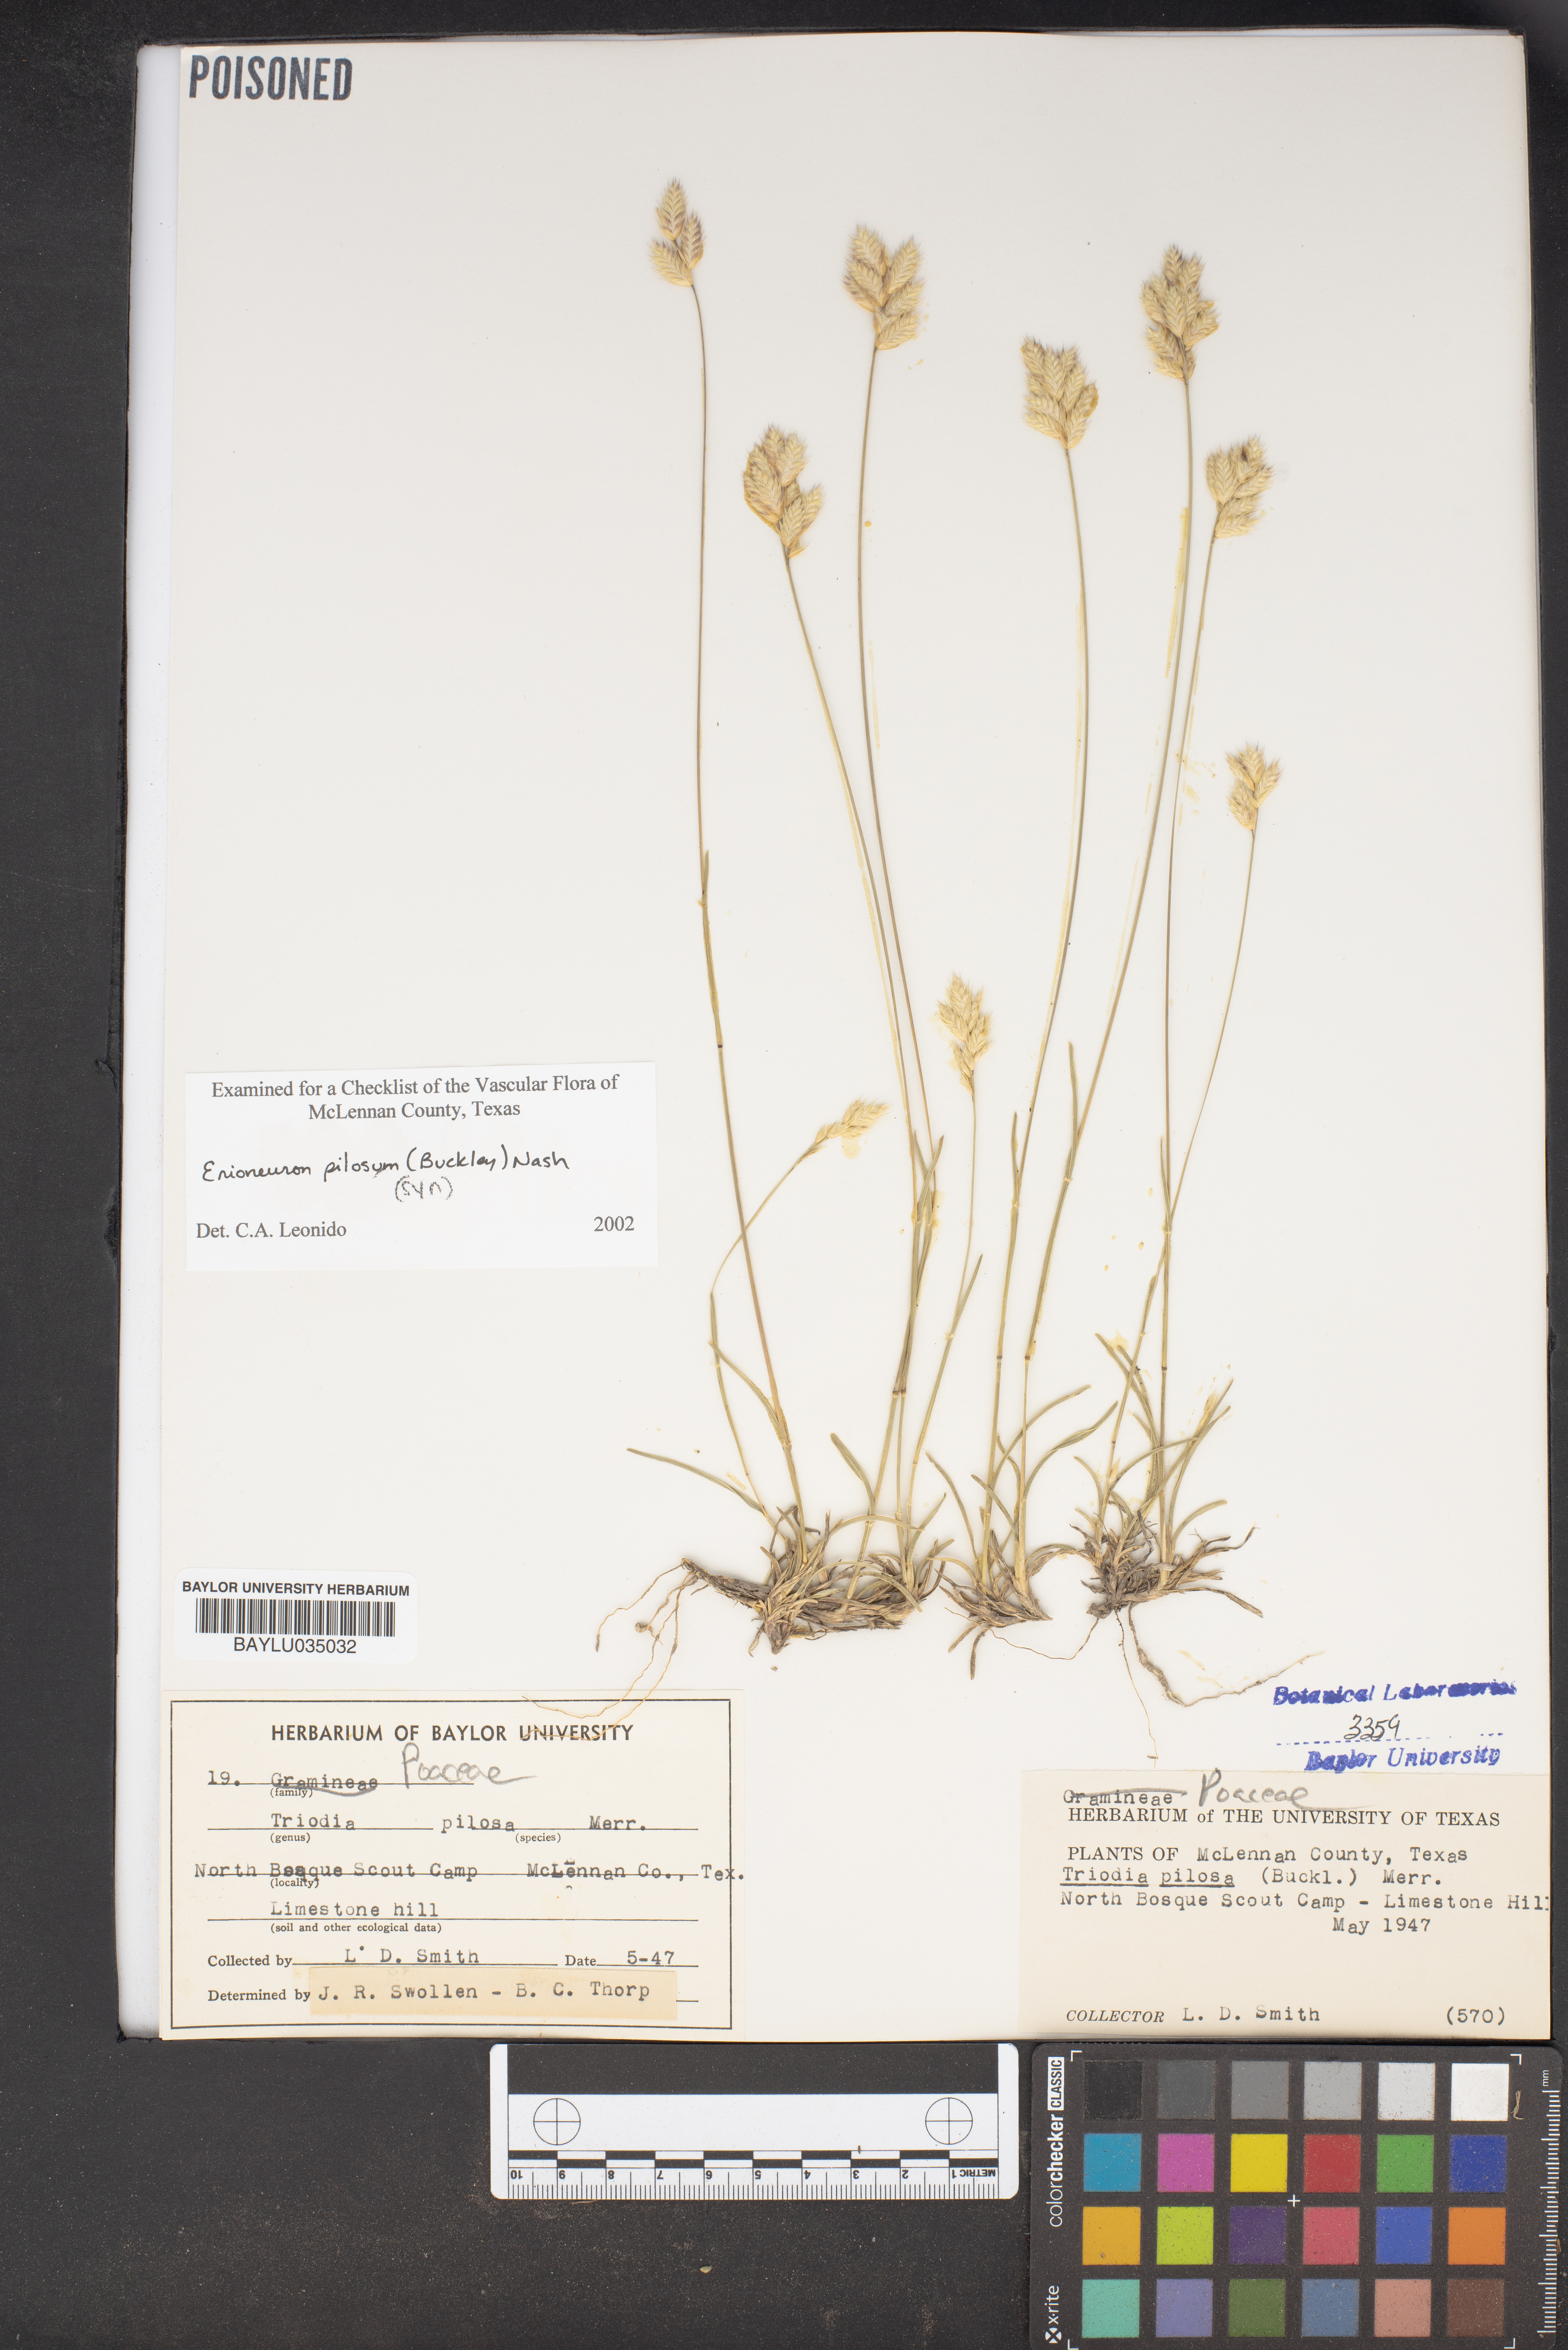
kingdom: Plantae
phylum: Tracheophyta
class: Liliopsida
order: Poales
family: Poaceae
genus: Triodia
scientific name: Triodia pilosa
